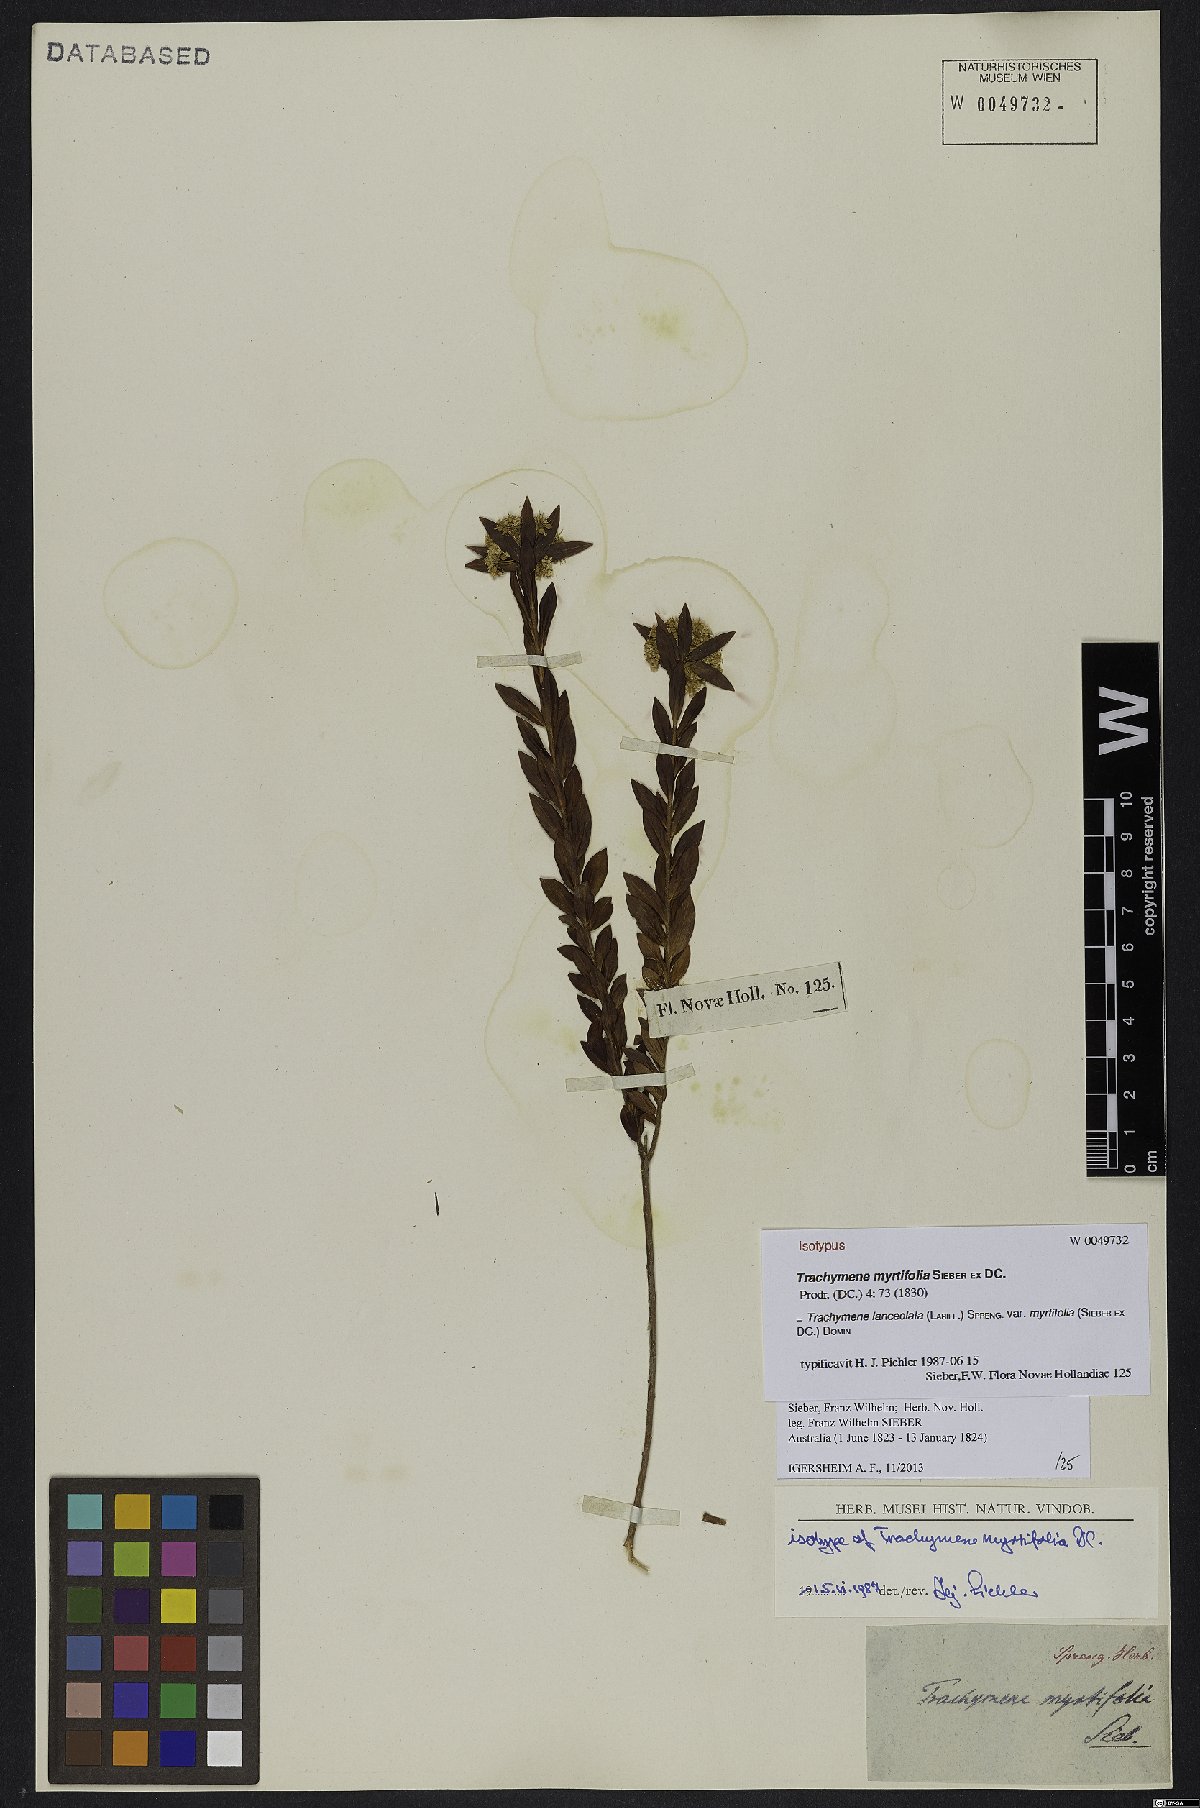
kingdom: Plantae
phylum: Tracheophyta
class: Magnoliopsida
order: Apiales
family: Apiaceae
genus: Platysace
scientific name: Platysace lanceolata
